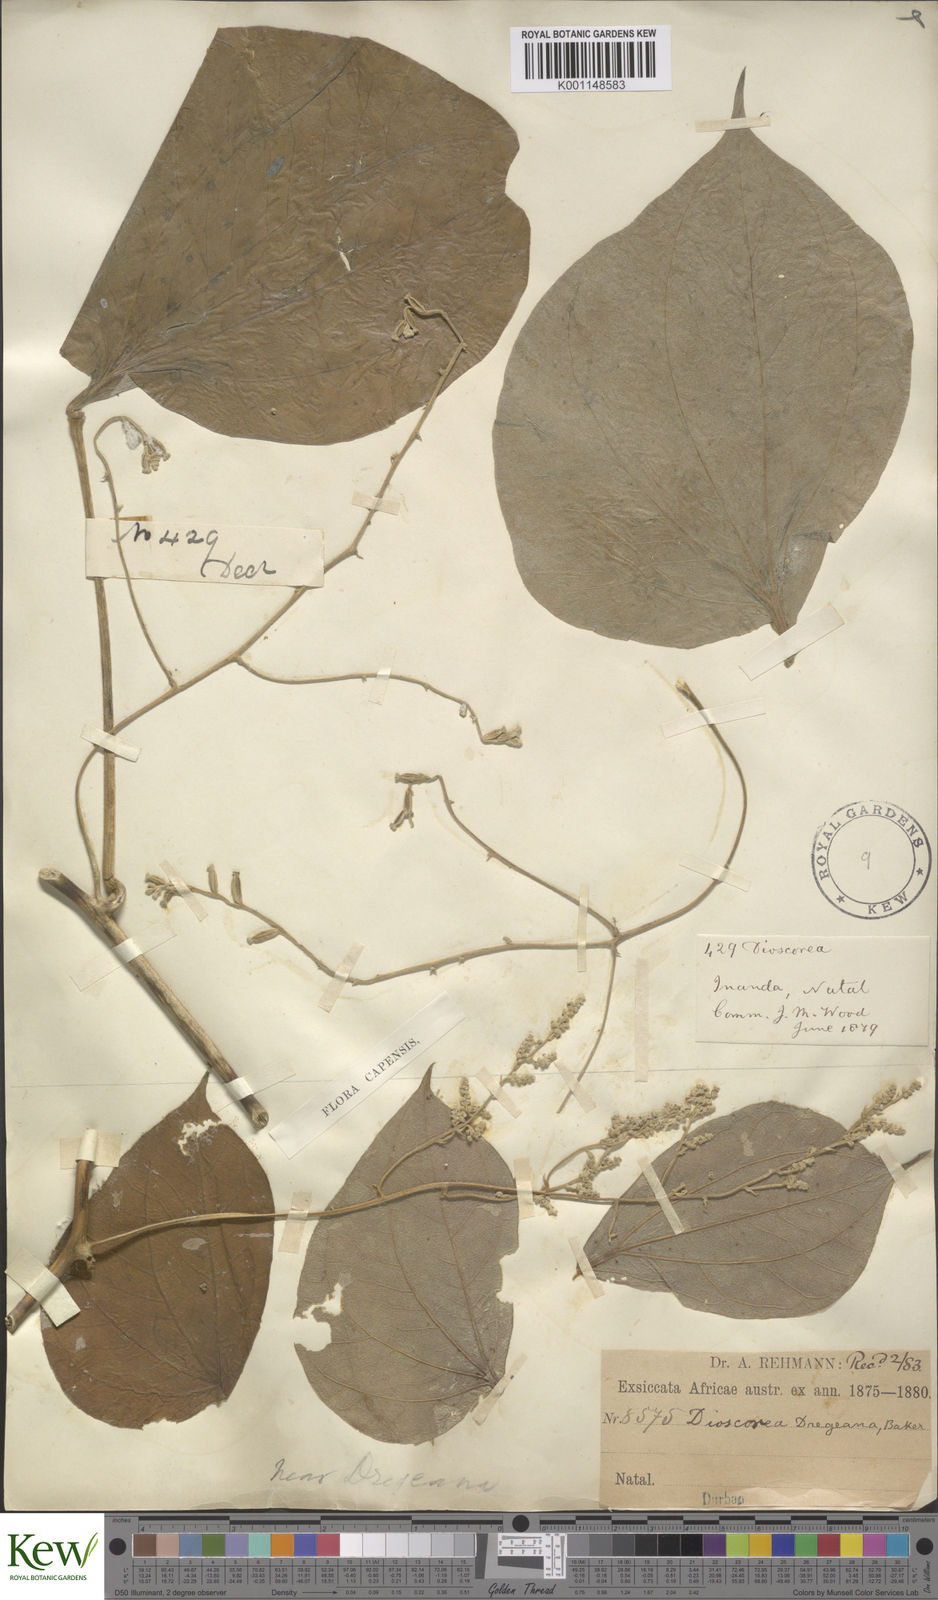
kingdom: Plantae
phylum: Tracheophyta
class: Liliopsida
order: Dioscoreales
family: Dioscoreaceae
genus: Dioscorea
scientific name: Dioscorea dregeana
